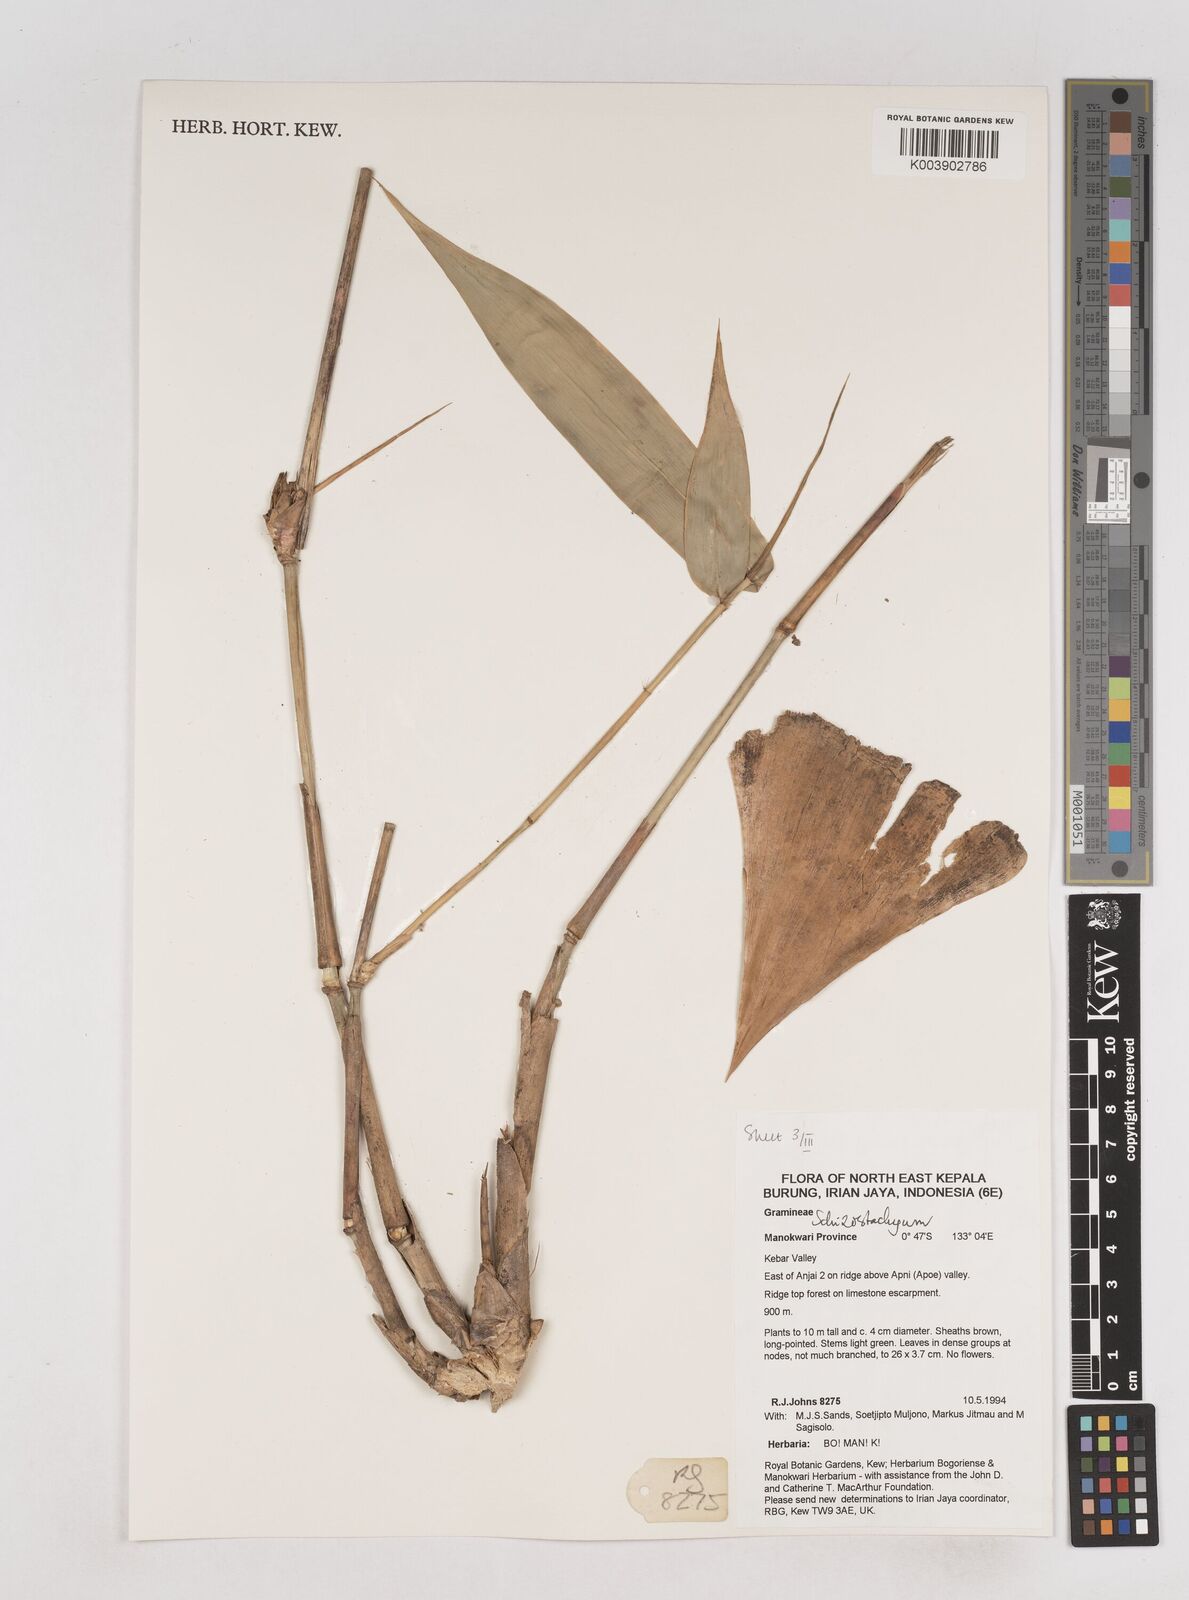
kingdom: Plantae
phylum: Tracheophyta
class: Liliopsida
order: Poales
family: Poaceae
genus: Schizostachyum
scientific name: Schizostachyum
